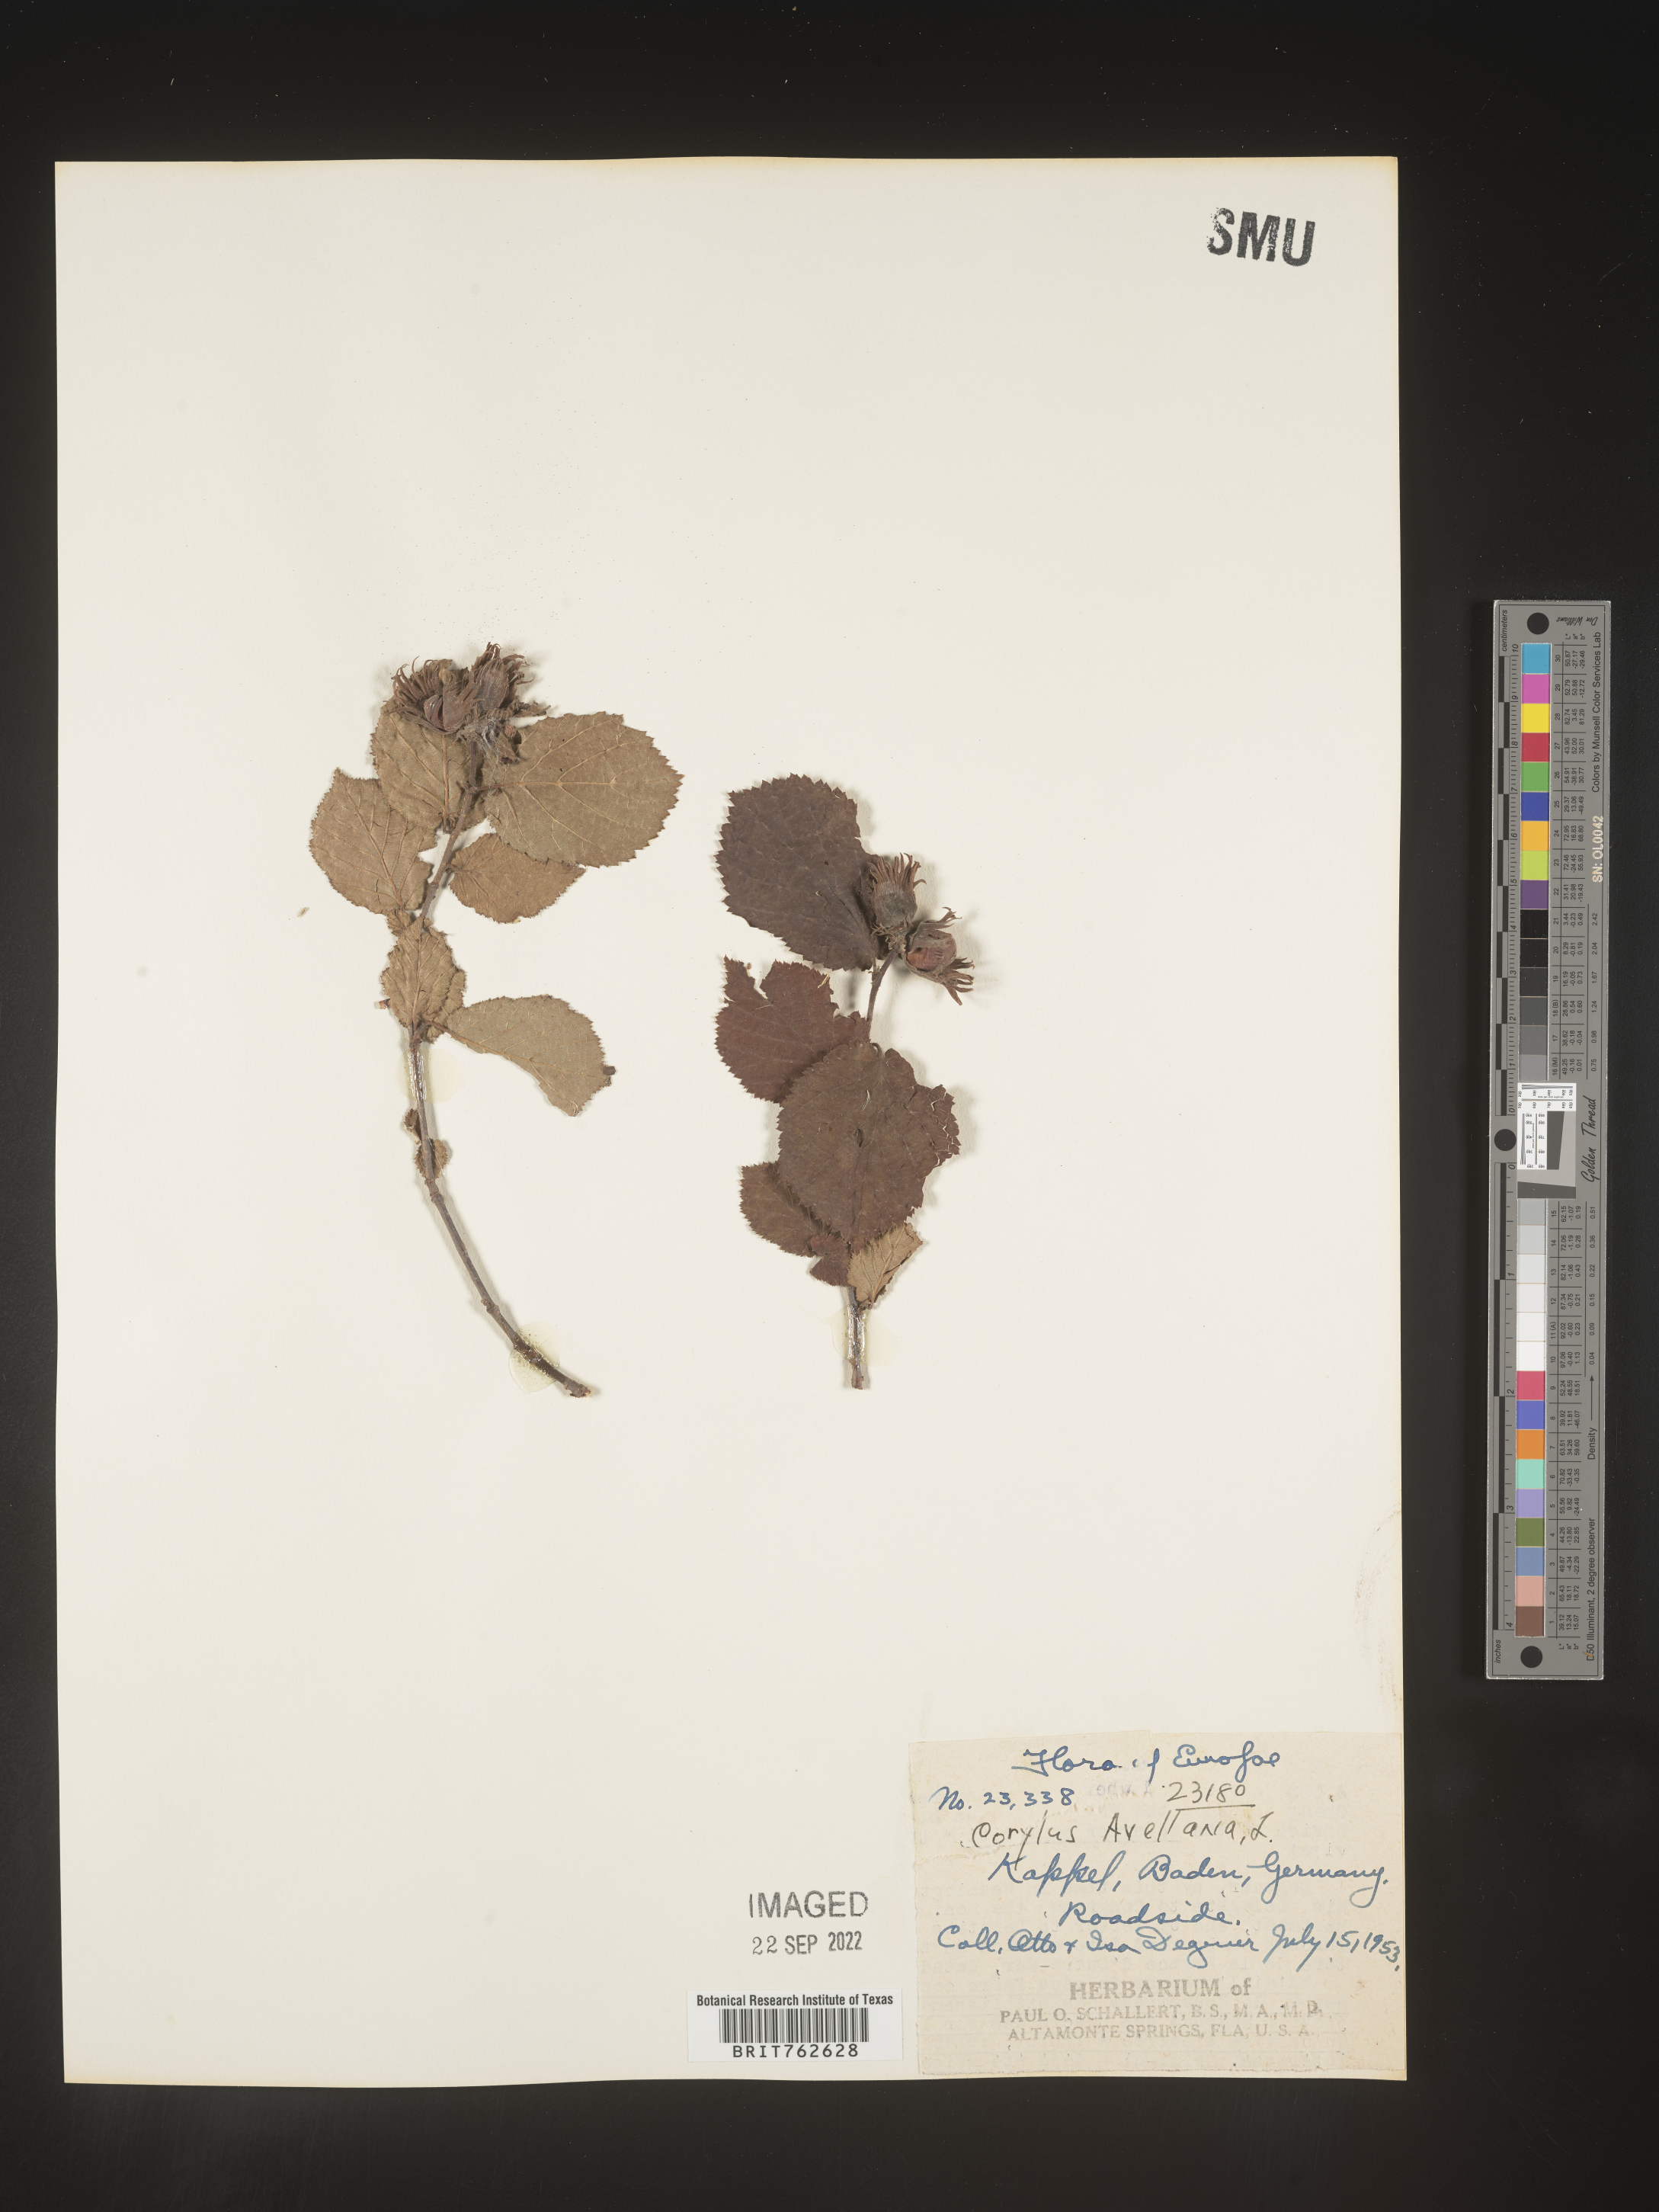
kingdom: Plantae
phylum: Tracheophyta
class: Magnoliopsida
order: Fagales
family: Betulaceae
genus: Corylus
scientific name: Corylus
